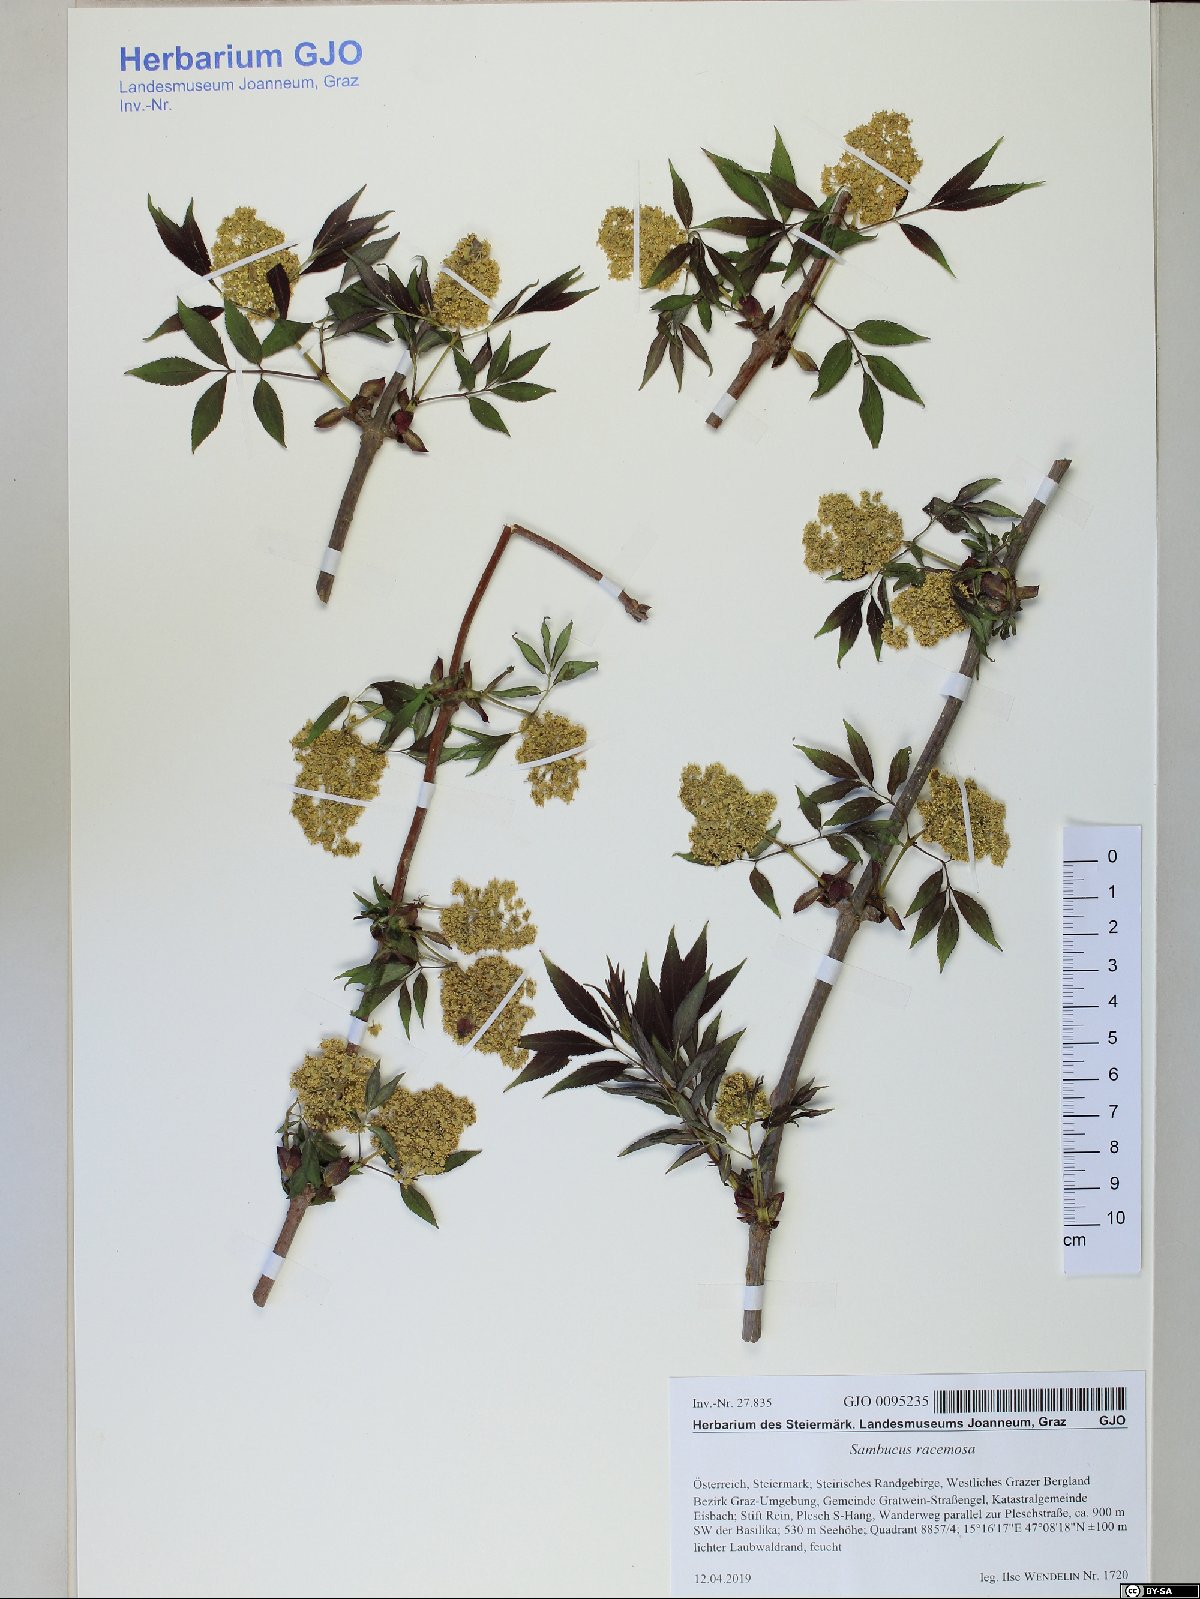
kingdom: Plantae
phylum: Tracheophyta
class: Magnoliopsida
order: Dipsacales
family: Viburnaceae
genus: Sambucus
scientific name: Sambucus racemosa
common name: Red-berried elder
